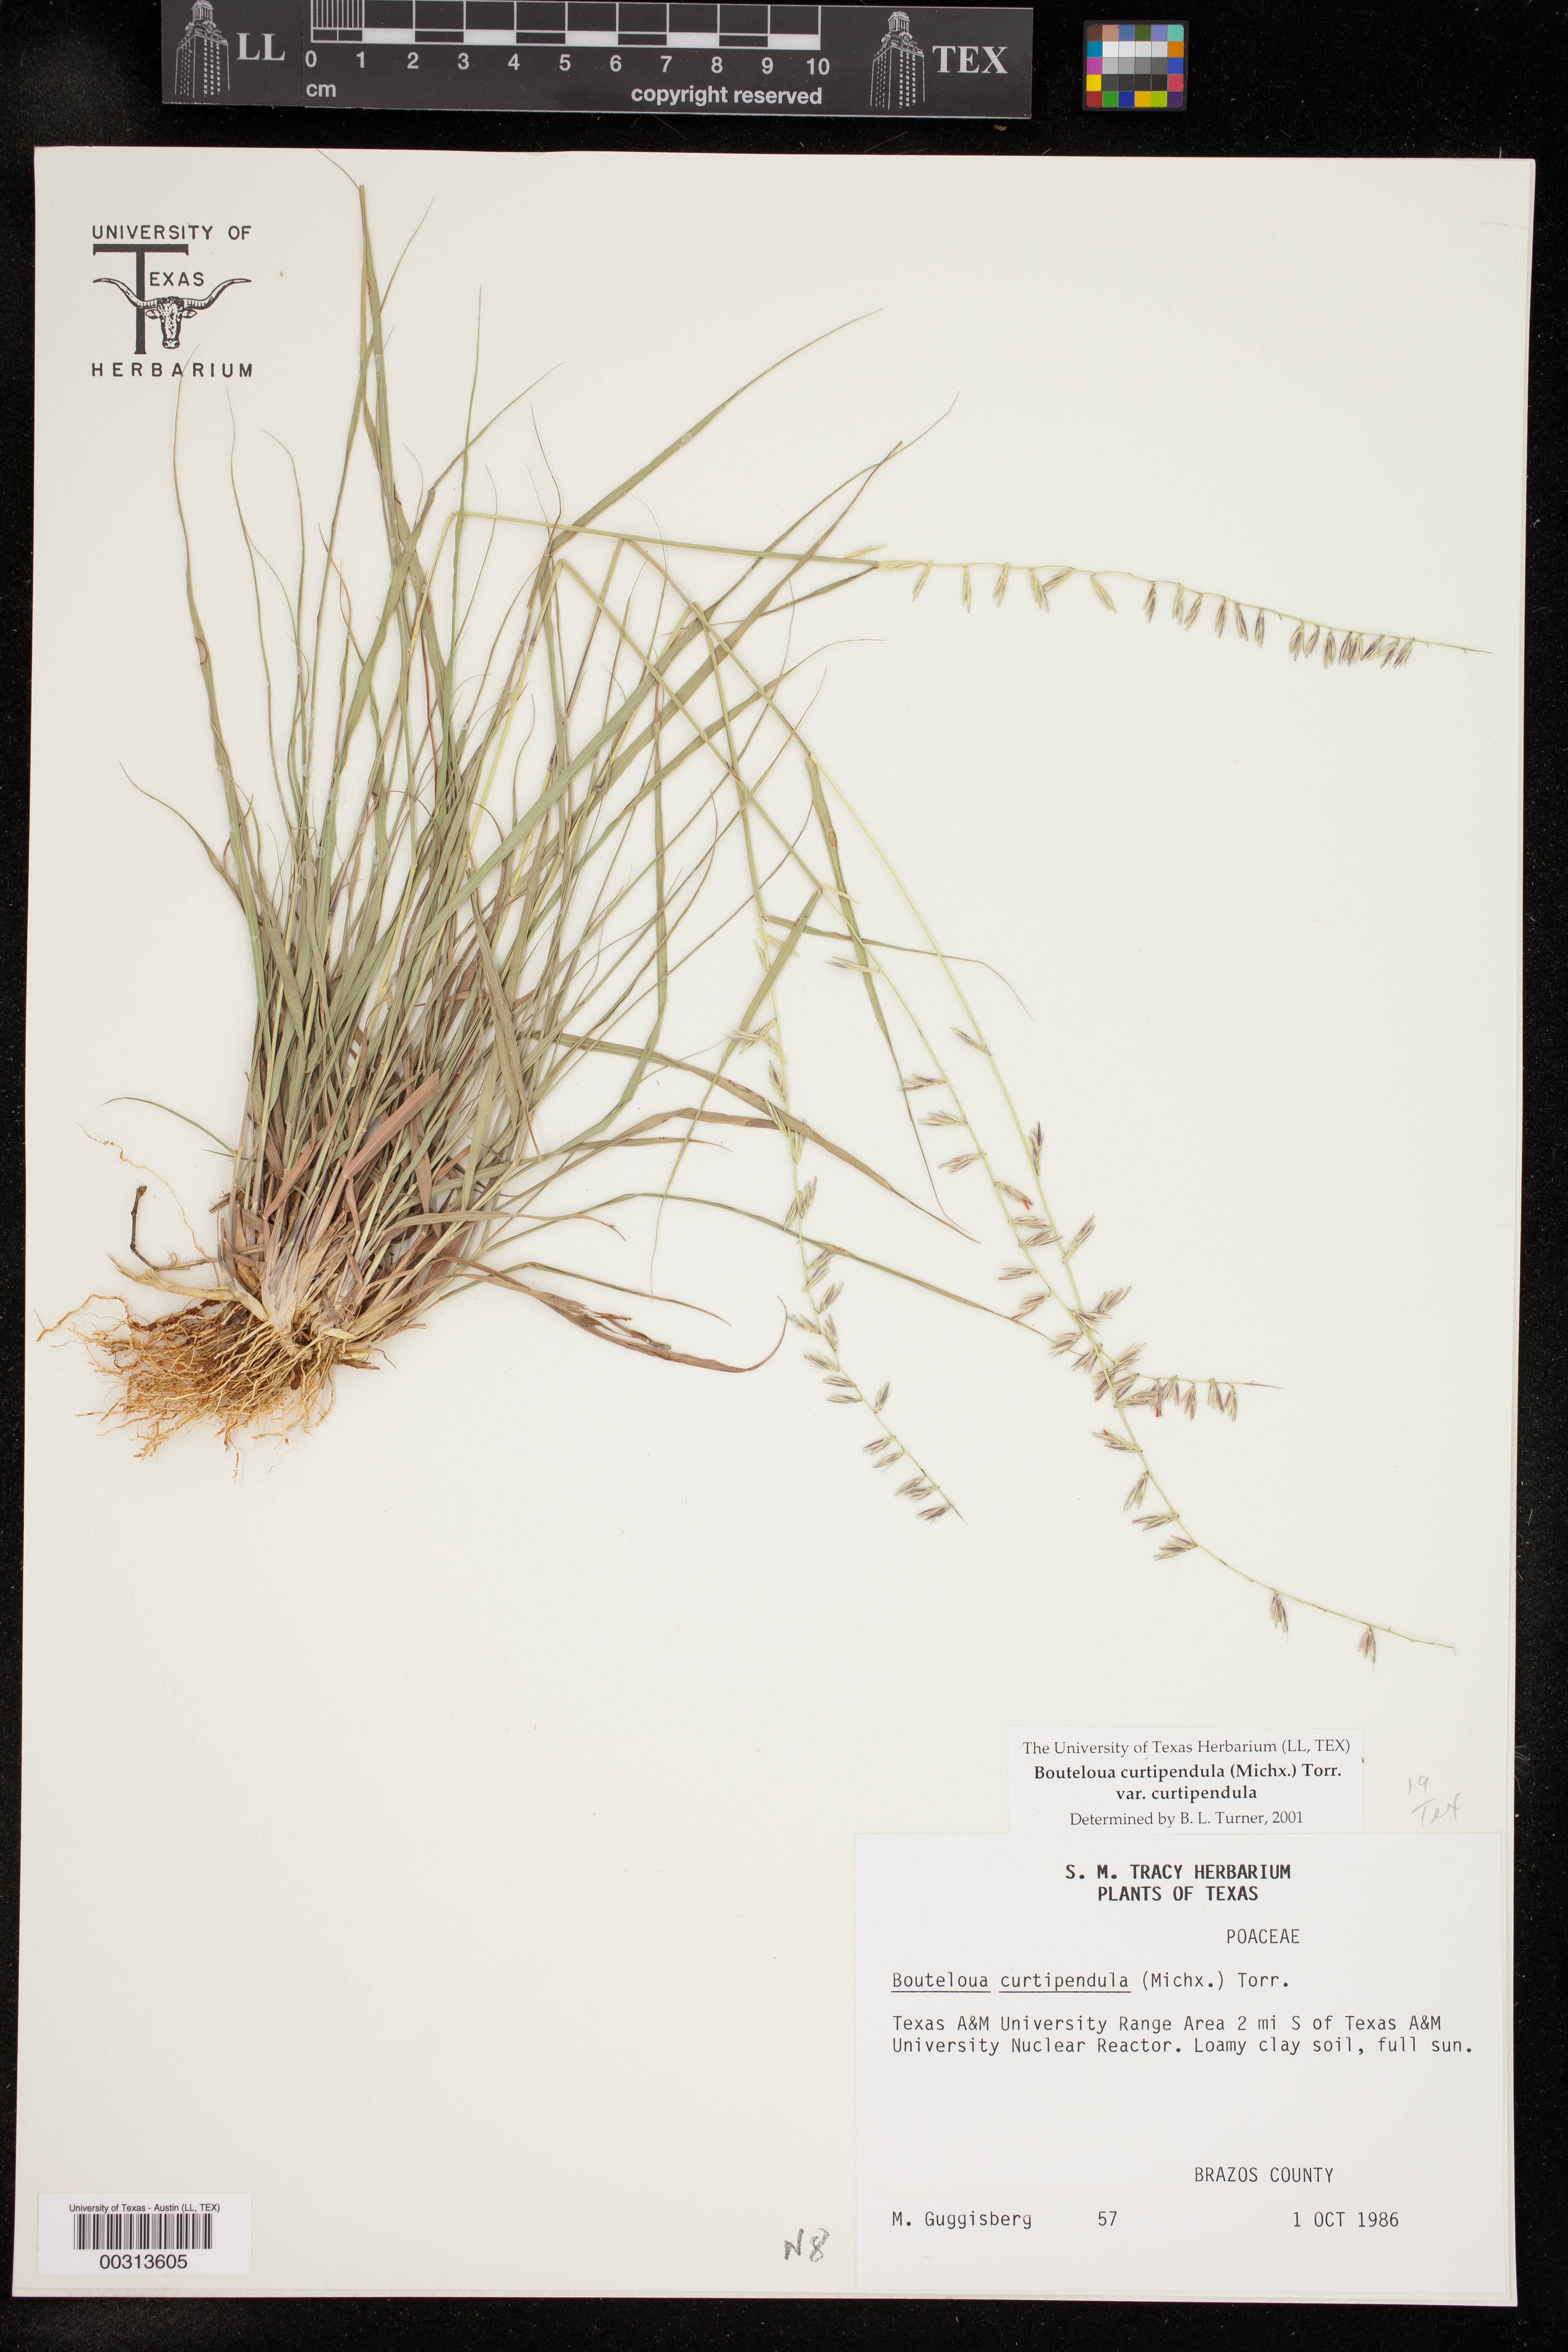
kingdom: Plantae
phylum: Tracheophyta
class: Liliopsida
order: Poales
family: Poaceae
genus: Bouteloua
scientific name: Bouteloua curtipendula
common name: Side-oats grama
